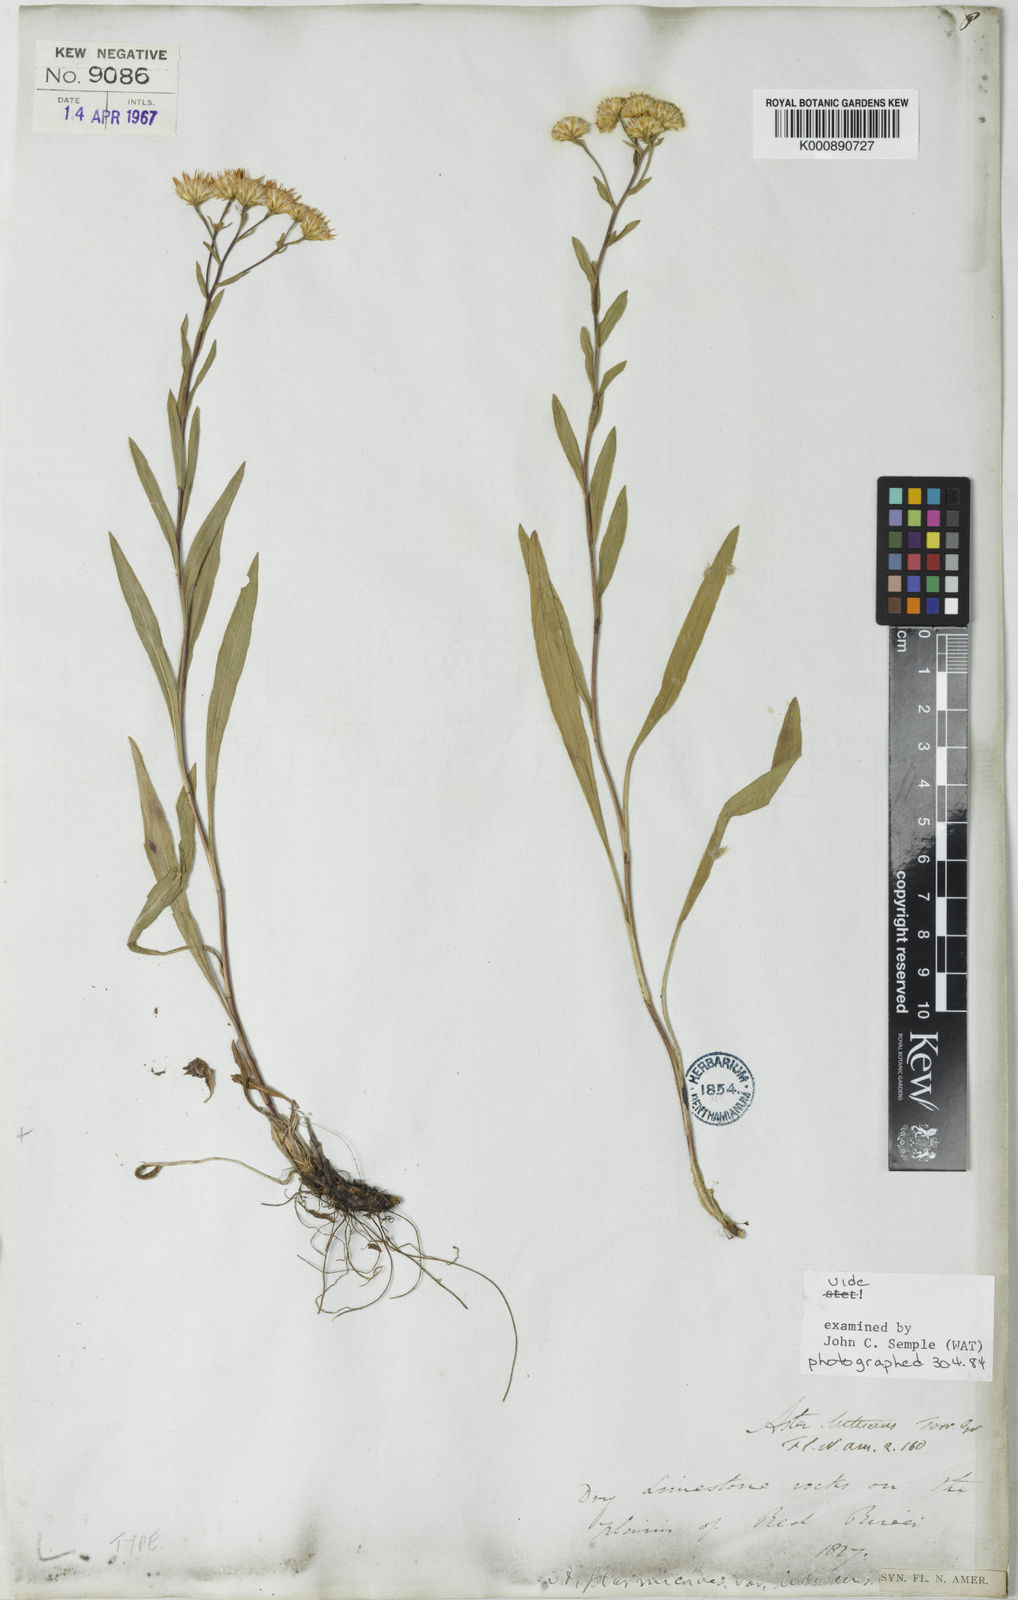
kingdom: Plantae
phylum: Tracheophyta
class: Magnoliopsida
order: Asterales
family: Asteraceae
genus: Solidago
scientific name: Solidago lutescens
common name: Yellow upland goldenrod
